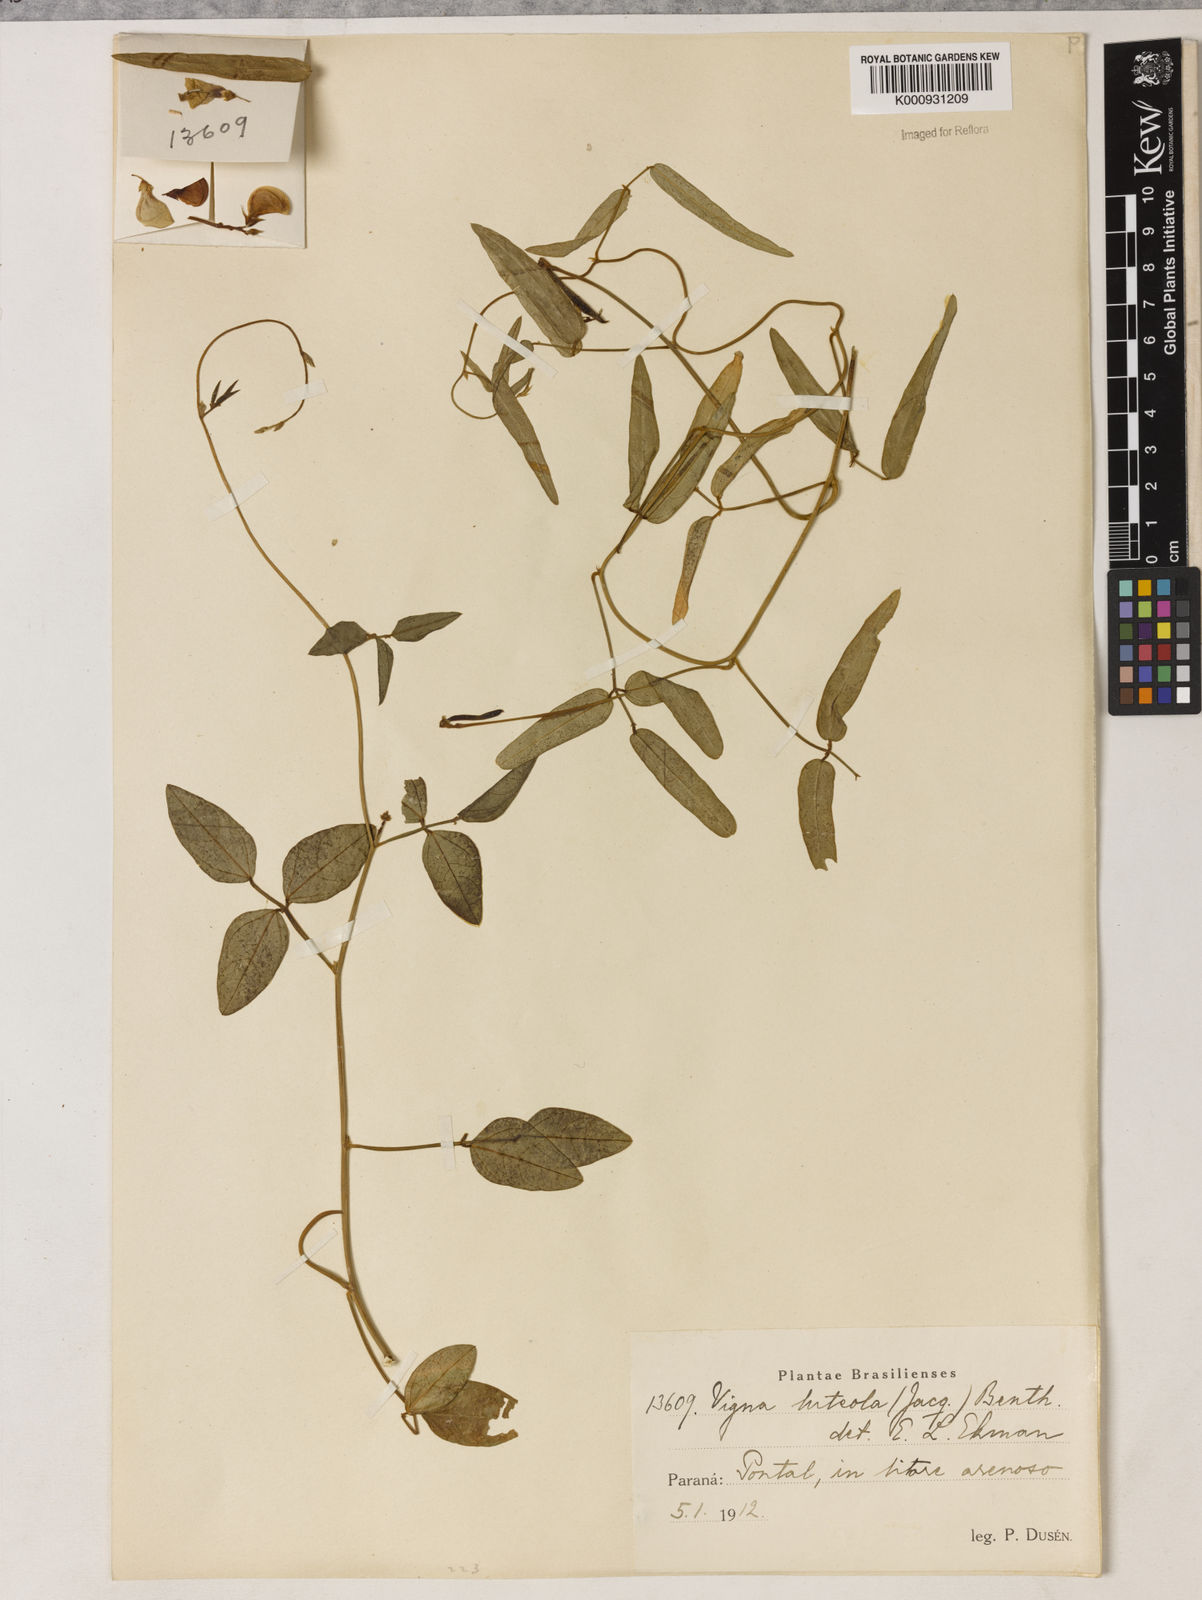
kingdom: Plantae
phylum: Tracheophyta
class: Magnoliopsida
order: Fabales
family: Fabaceae
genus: Vigna
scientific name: Vigna luteola
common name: Hairypod cowpea
